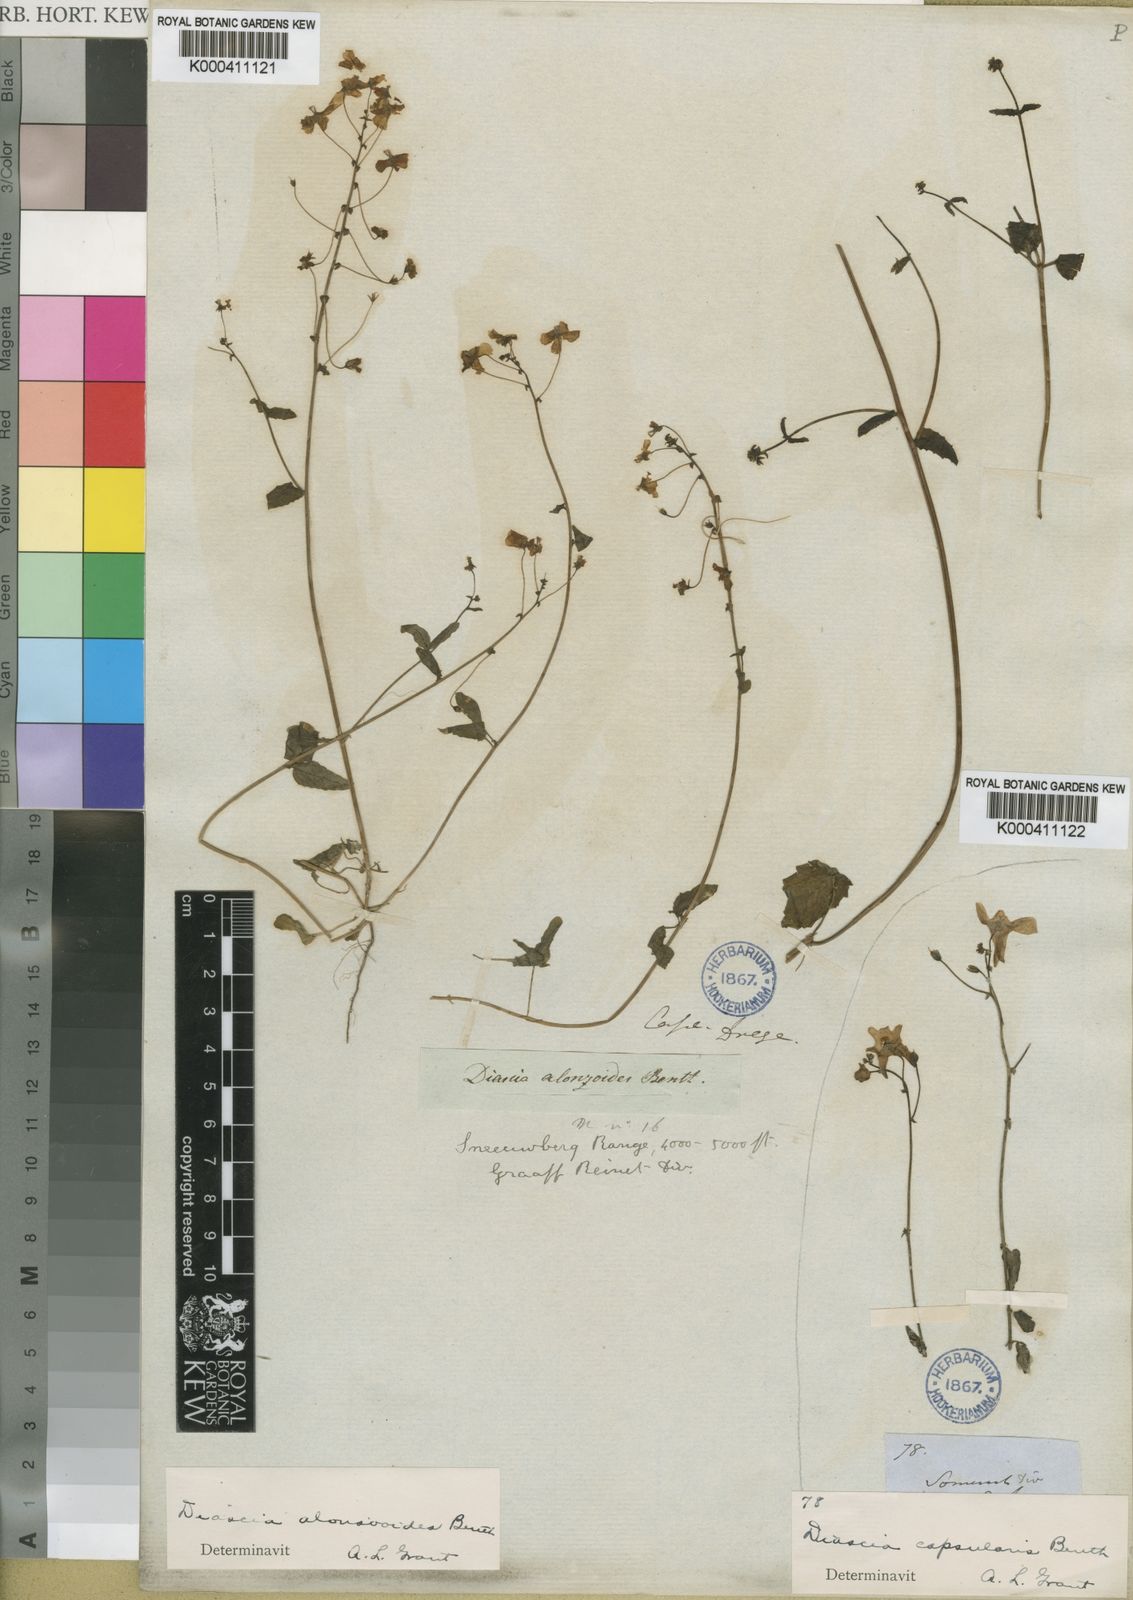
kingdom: Plantae
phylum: Tracheophyta
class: Magnoliopsida
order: Lamiales
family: Scrophulariaceae
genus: Diascia
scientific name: Diascia alonsooides
